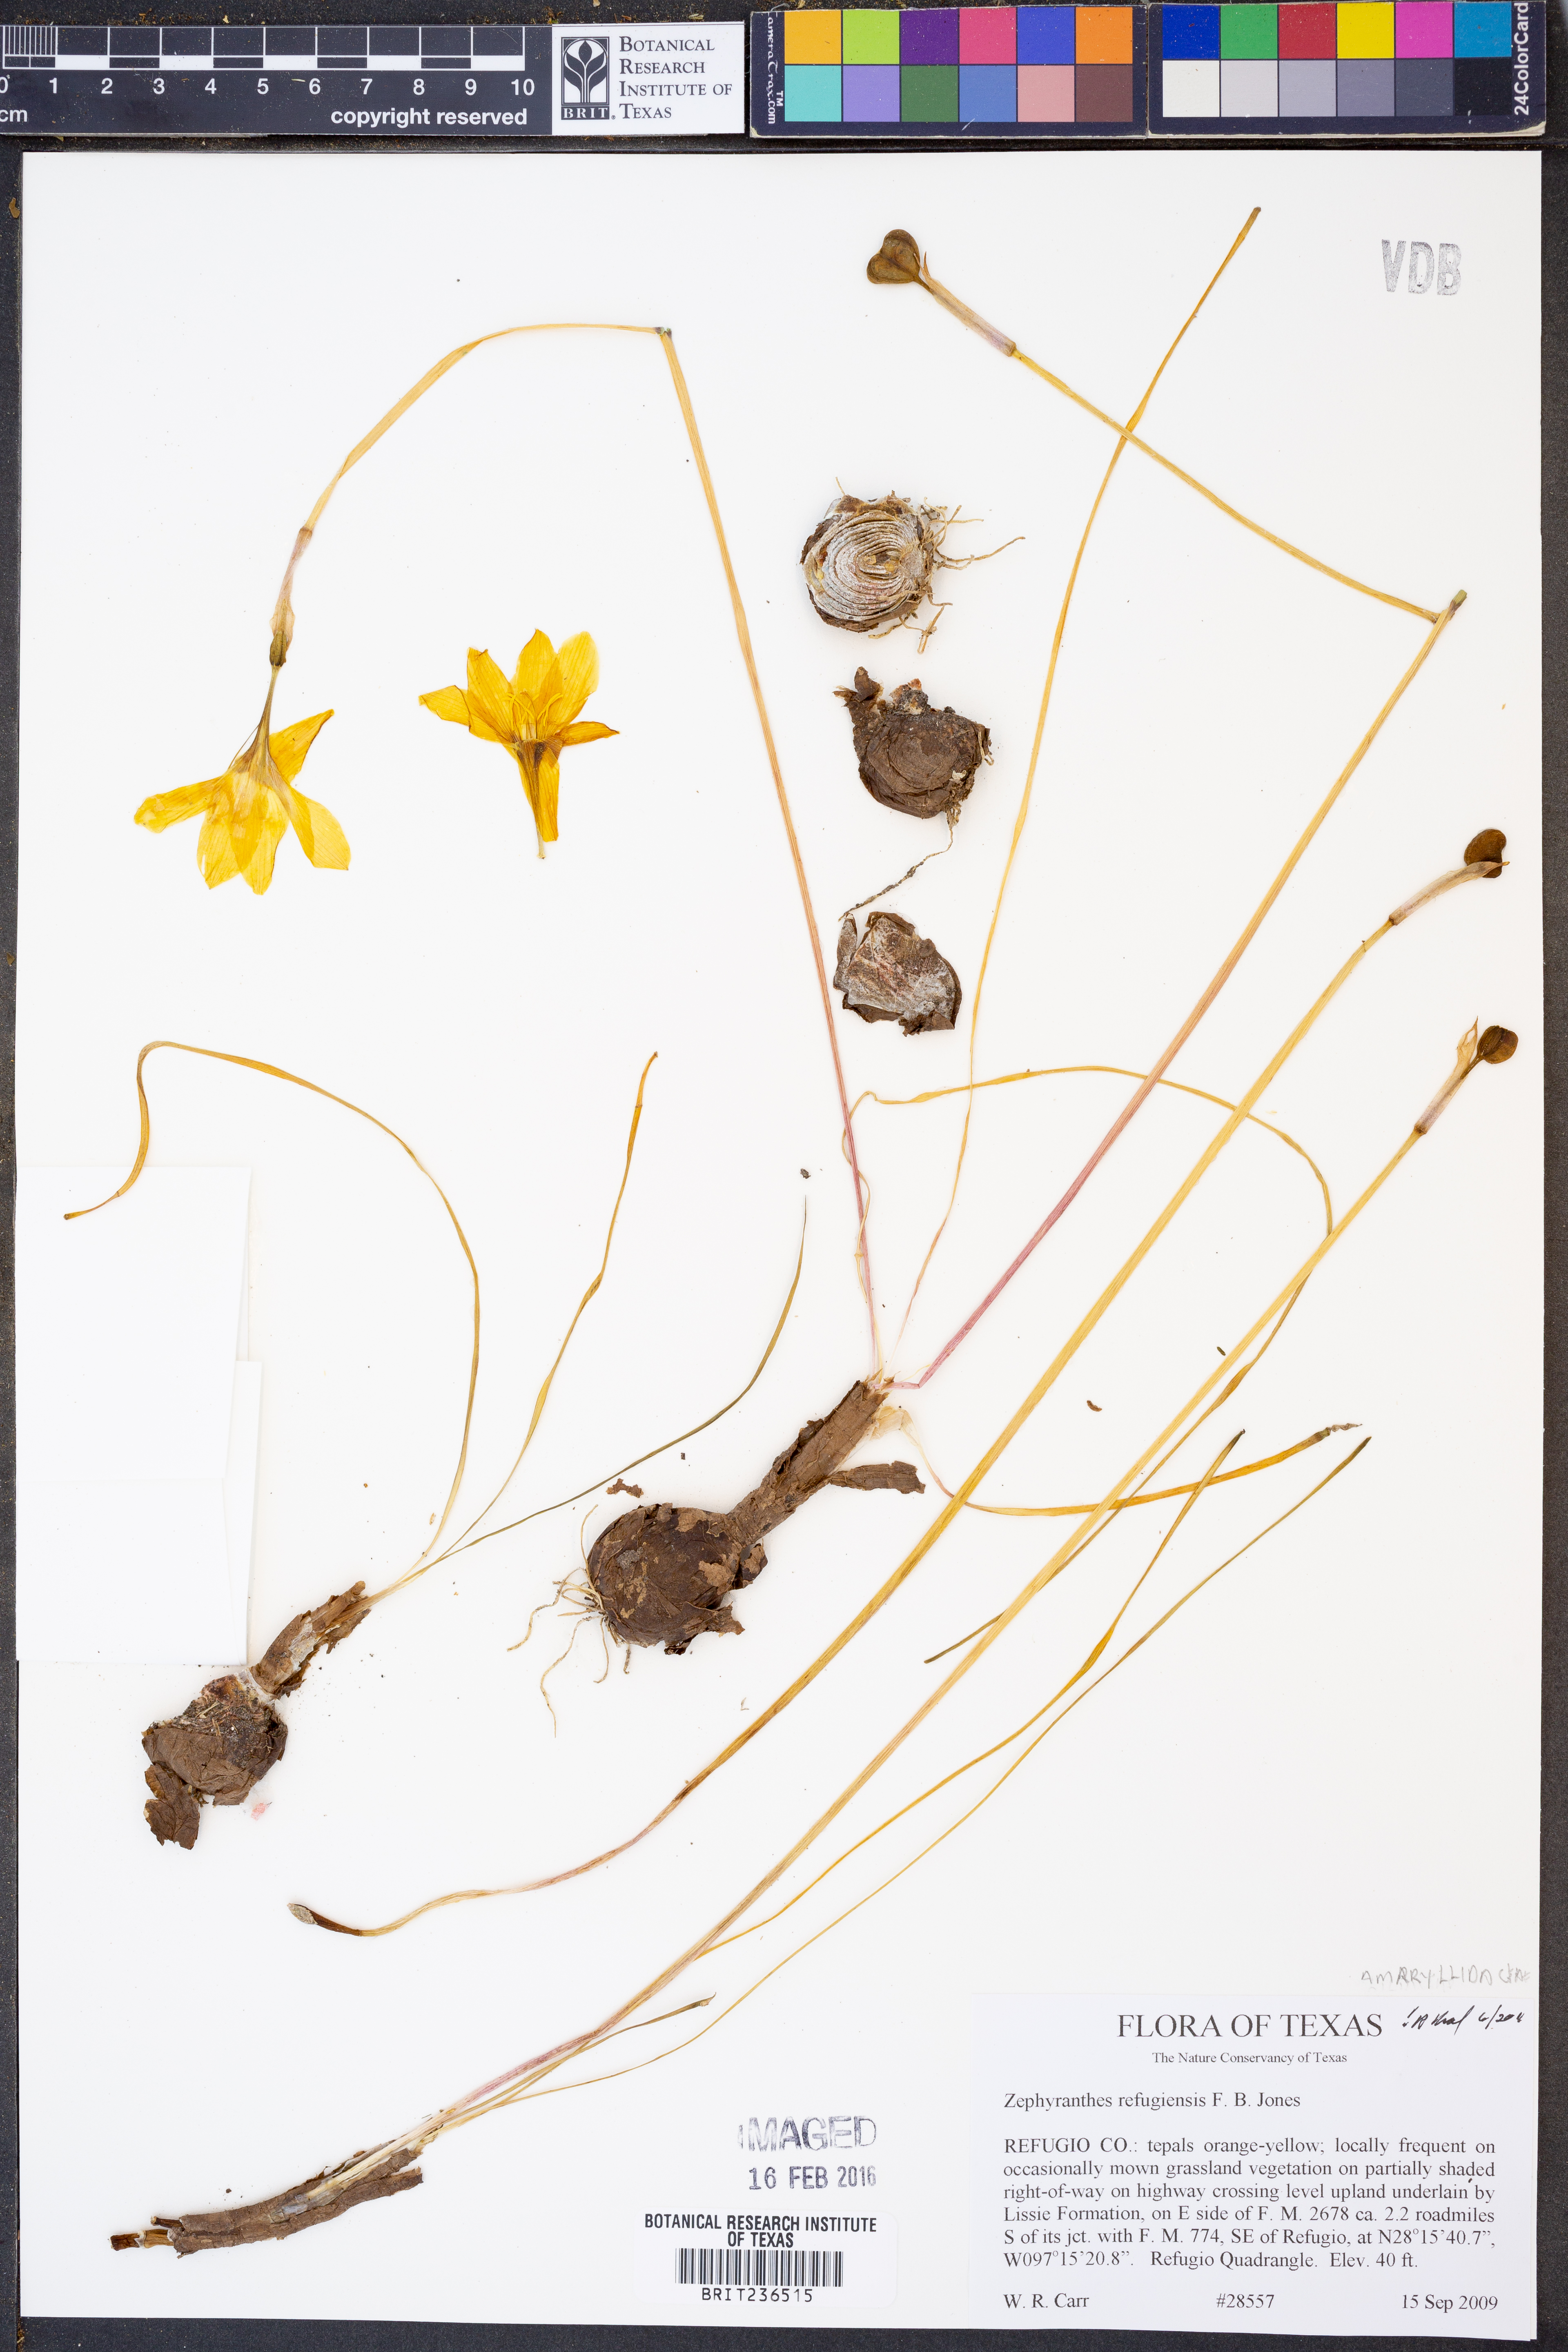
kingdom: Plantae
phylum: Tracheophyta
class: Liliopsida
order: Asparagales
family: Amaryllidaceae
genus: Zephyranthes
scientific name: Zephyranthes refugiensis
